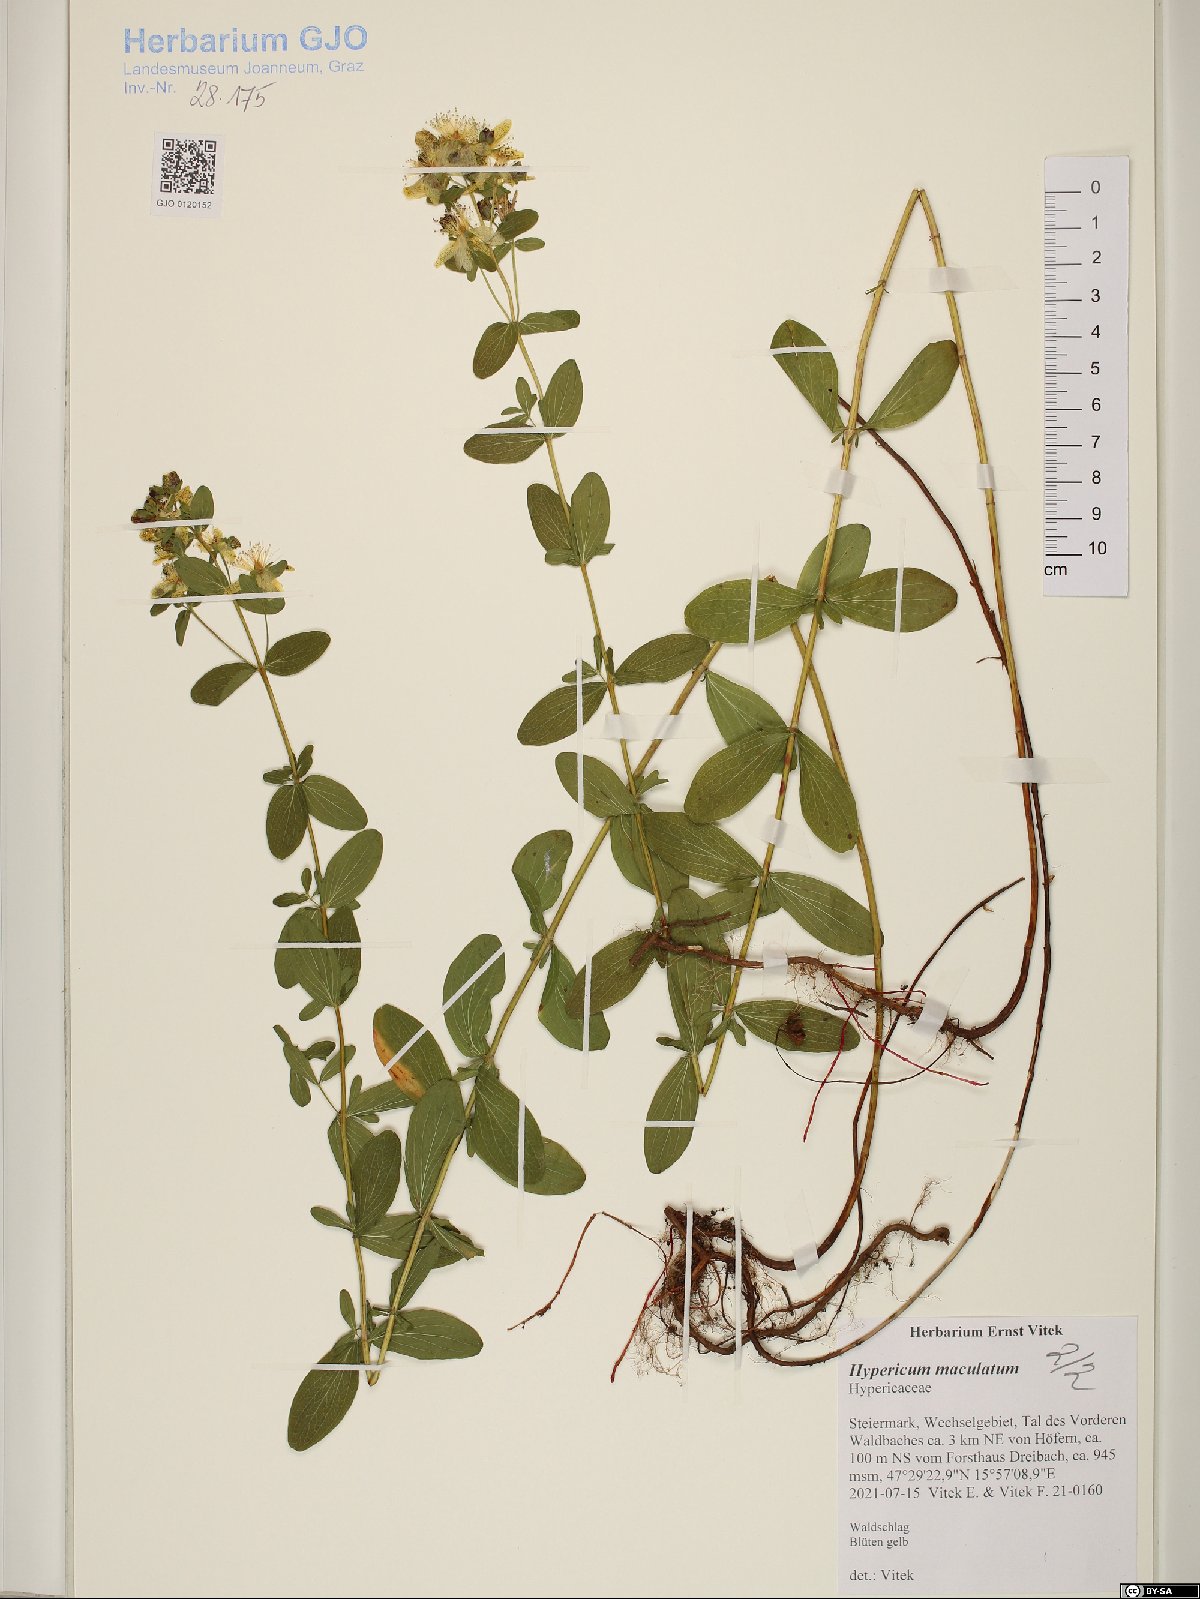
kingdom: Plantae
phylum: Tracheophyta
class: Magnoliopsida
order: Malpighiales
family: Hypericaceae
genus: Hypericum
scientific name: Hypericum maculatum
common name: Imperforate st. john's-wort
